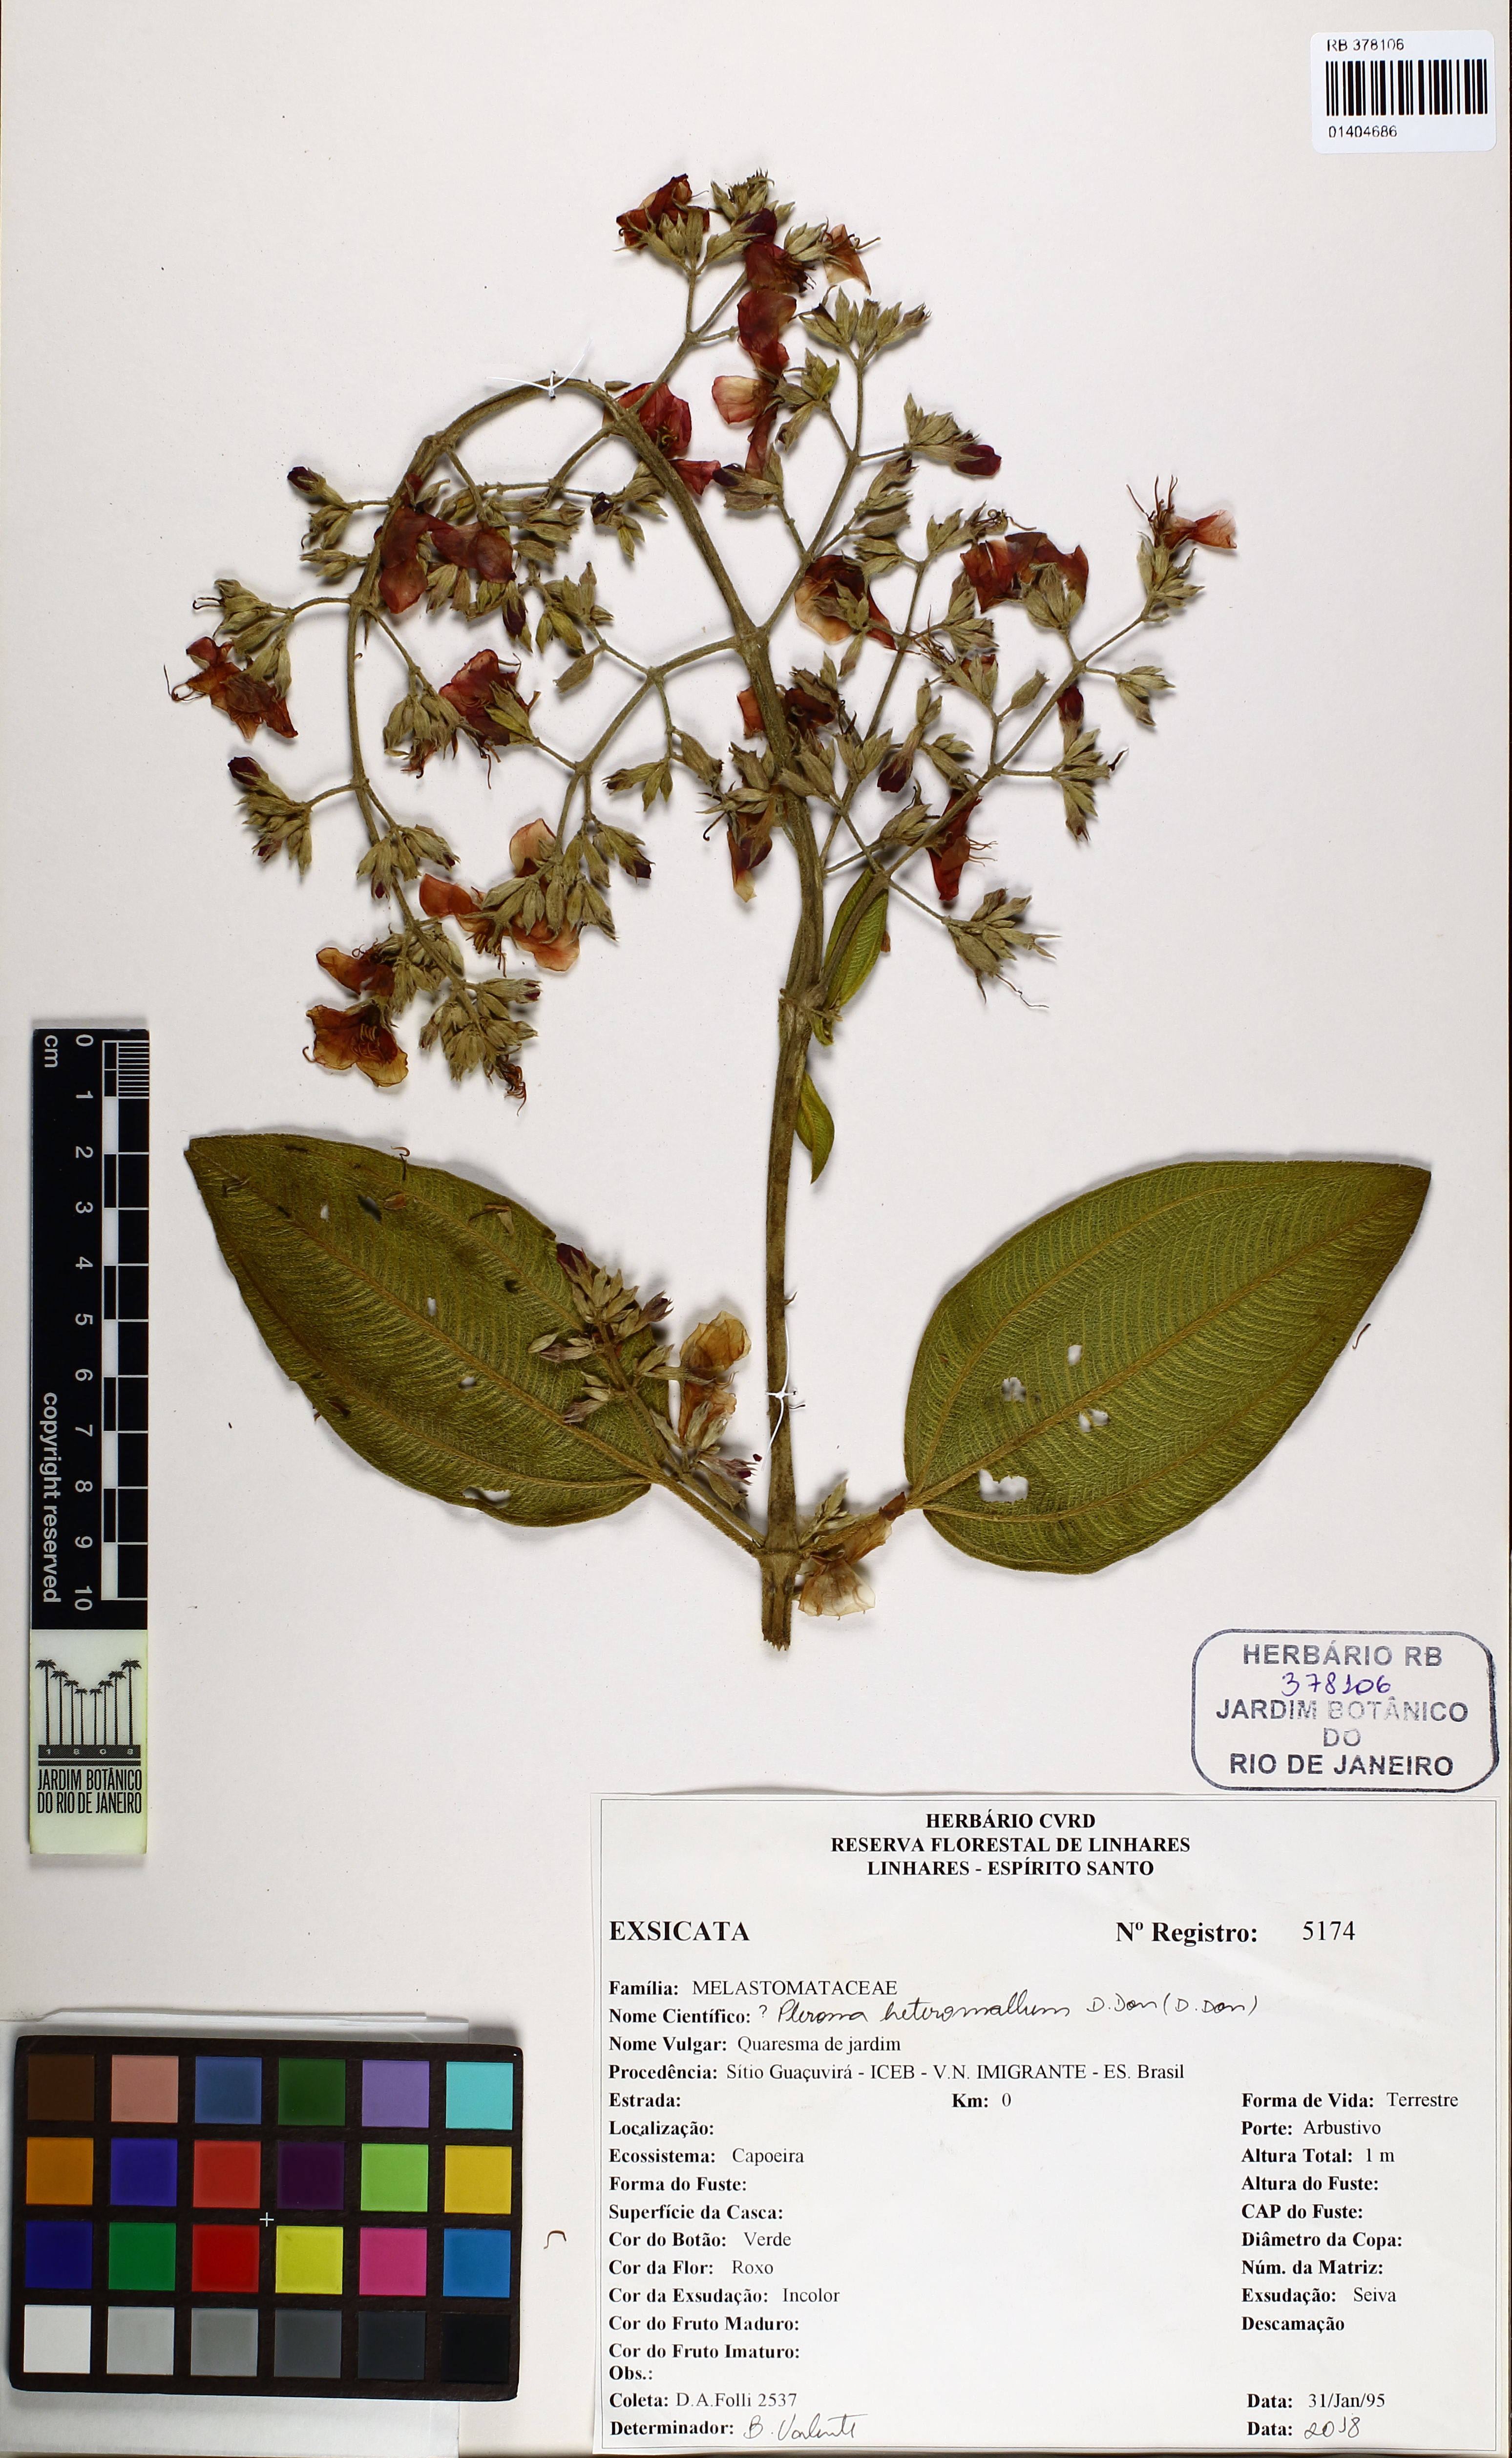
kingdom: Plantae
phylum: Tracheophyta
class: Magnoliopsida
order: Myrtales
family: Melastomataceae
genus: Pleroma
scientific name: Pleroma heteromallum
